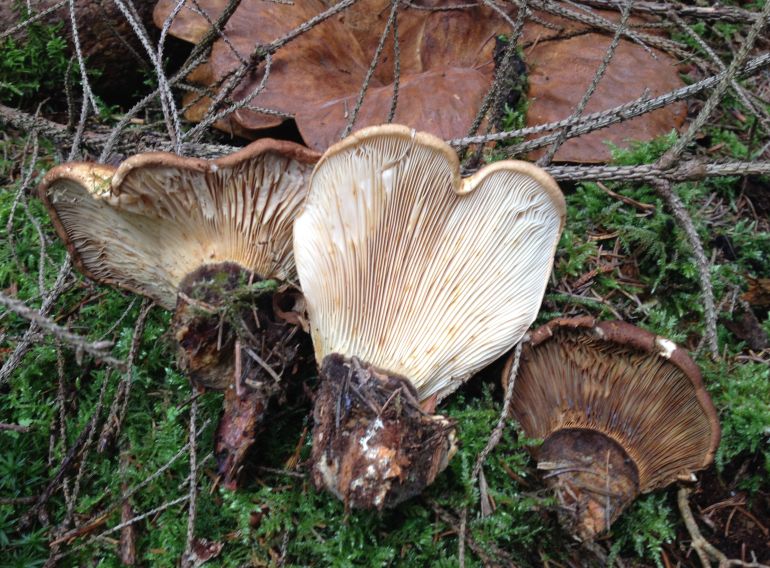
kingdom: Fungi
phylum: Basidiomycota
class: Agaricomycetes
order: Boletales
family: Tapinellaceae
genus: Tapinella
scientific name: Tapinella atrotomentosa
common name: sortfiltet viftesvamp
